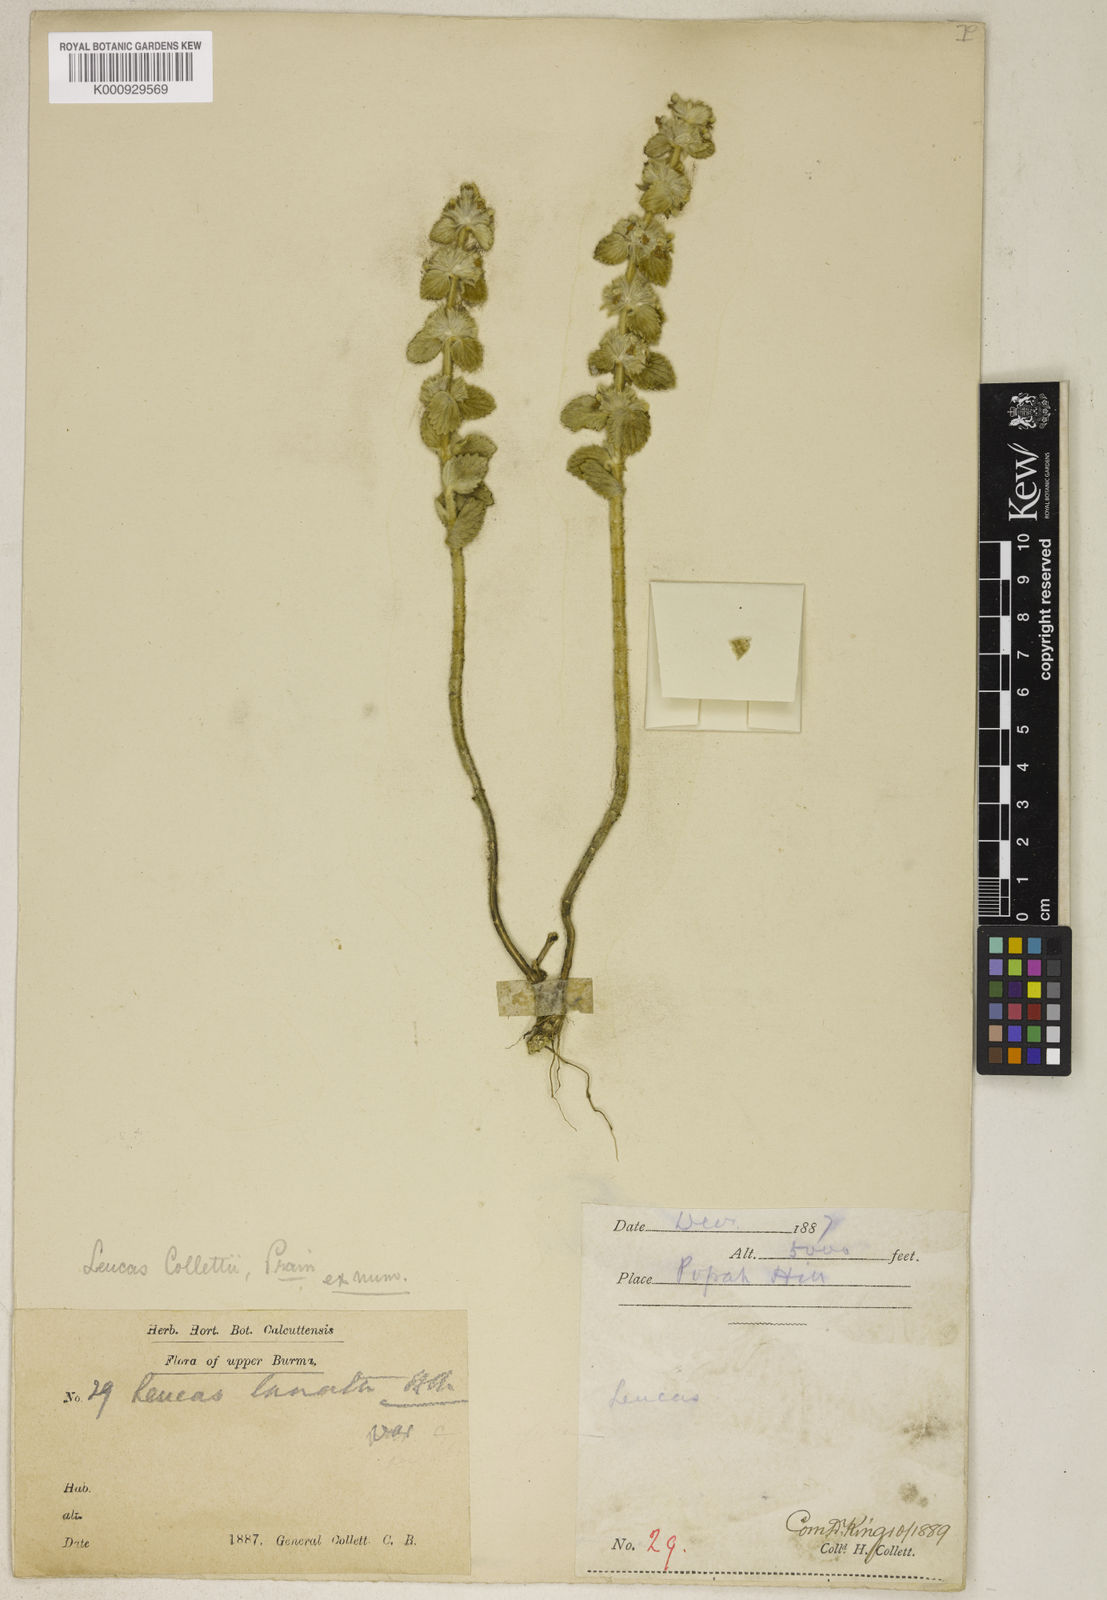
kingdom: Plantae
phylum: Tracheophyta
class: Magnoliopsida
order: Lamiales
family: Lamiaceae
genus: Leucas
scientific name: Leucas collettii
